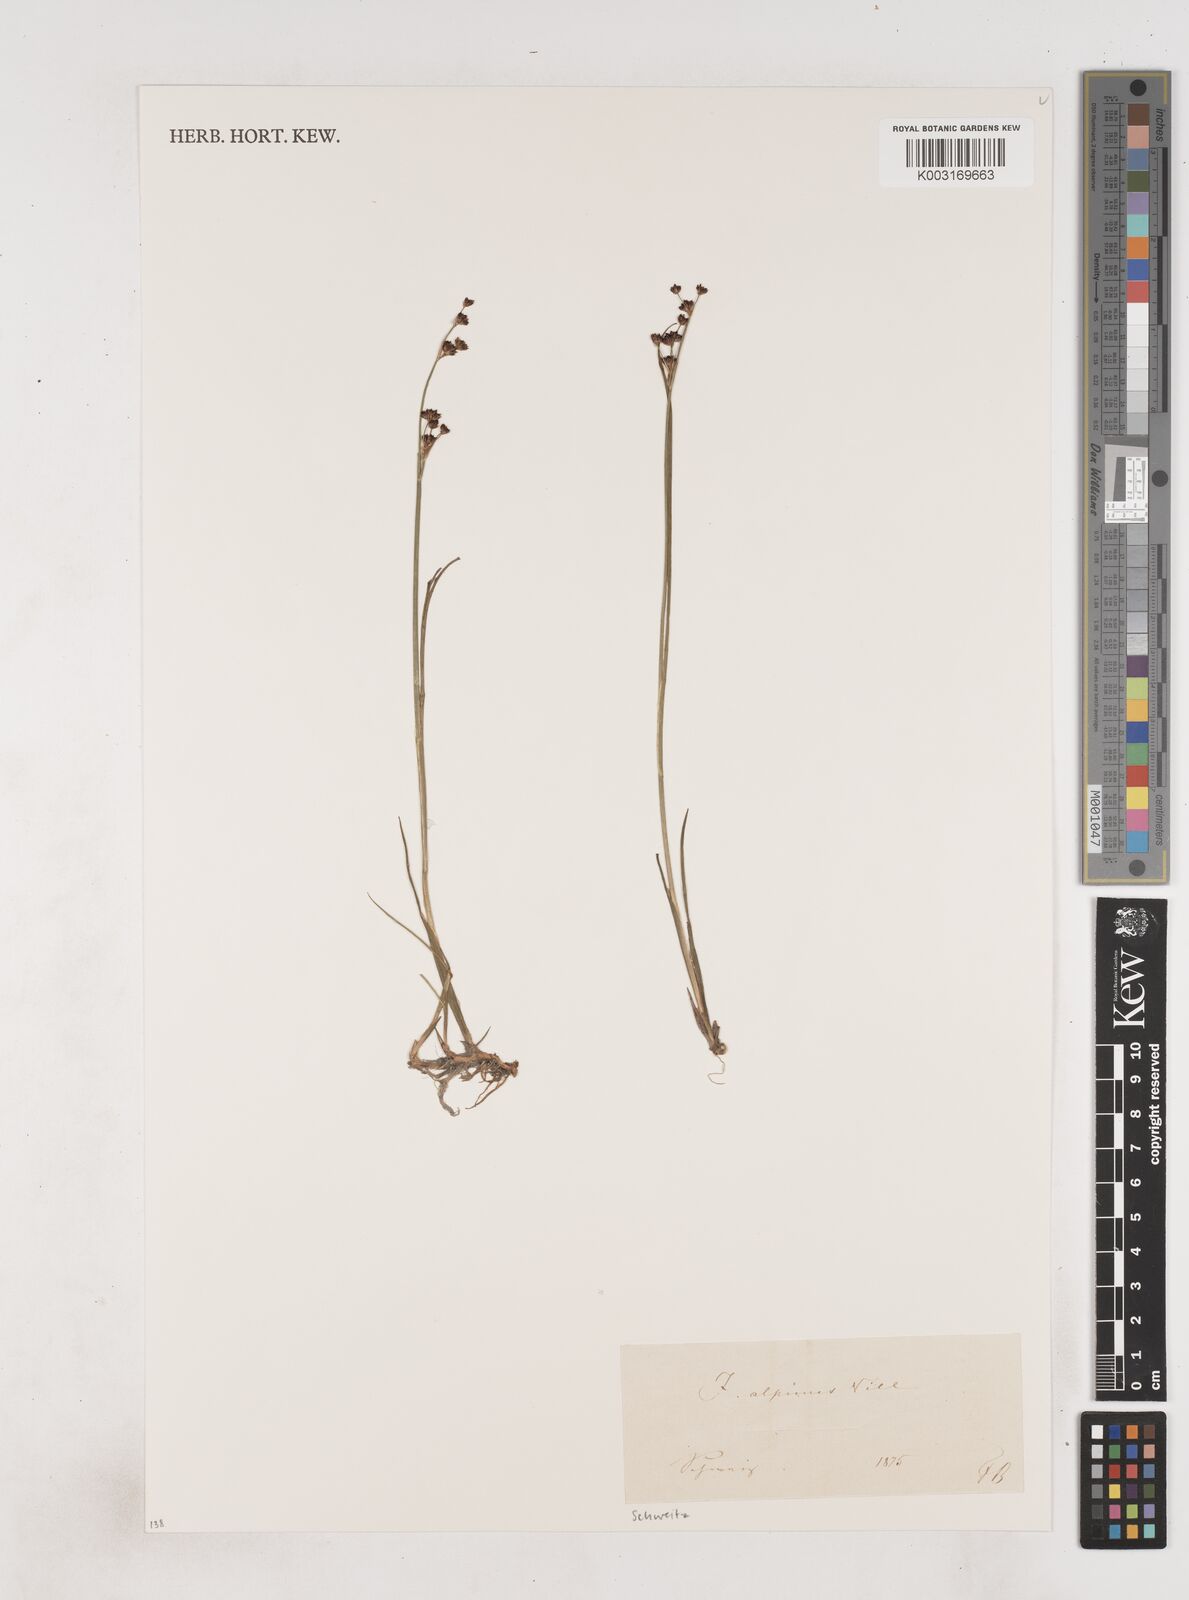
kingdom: Plantae
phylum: Tracheophyta
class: Liliopsida
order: Poales
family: Juncaceae
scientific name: Juncaceae
